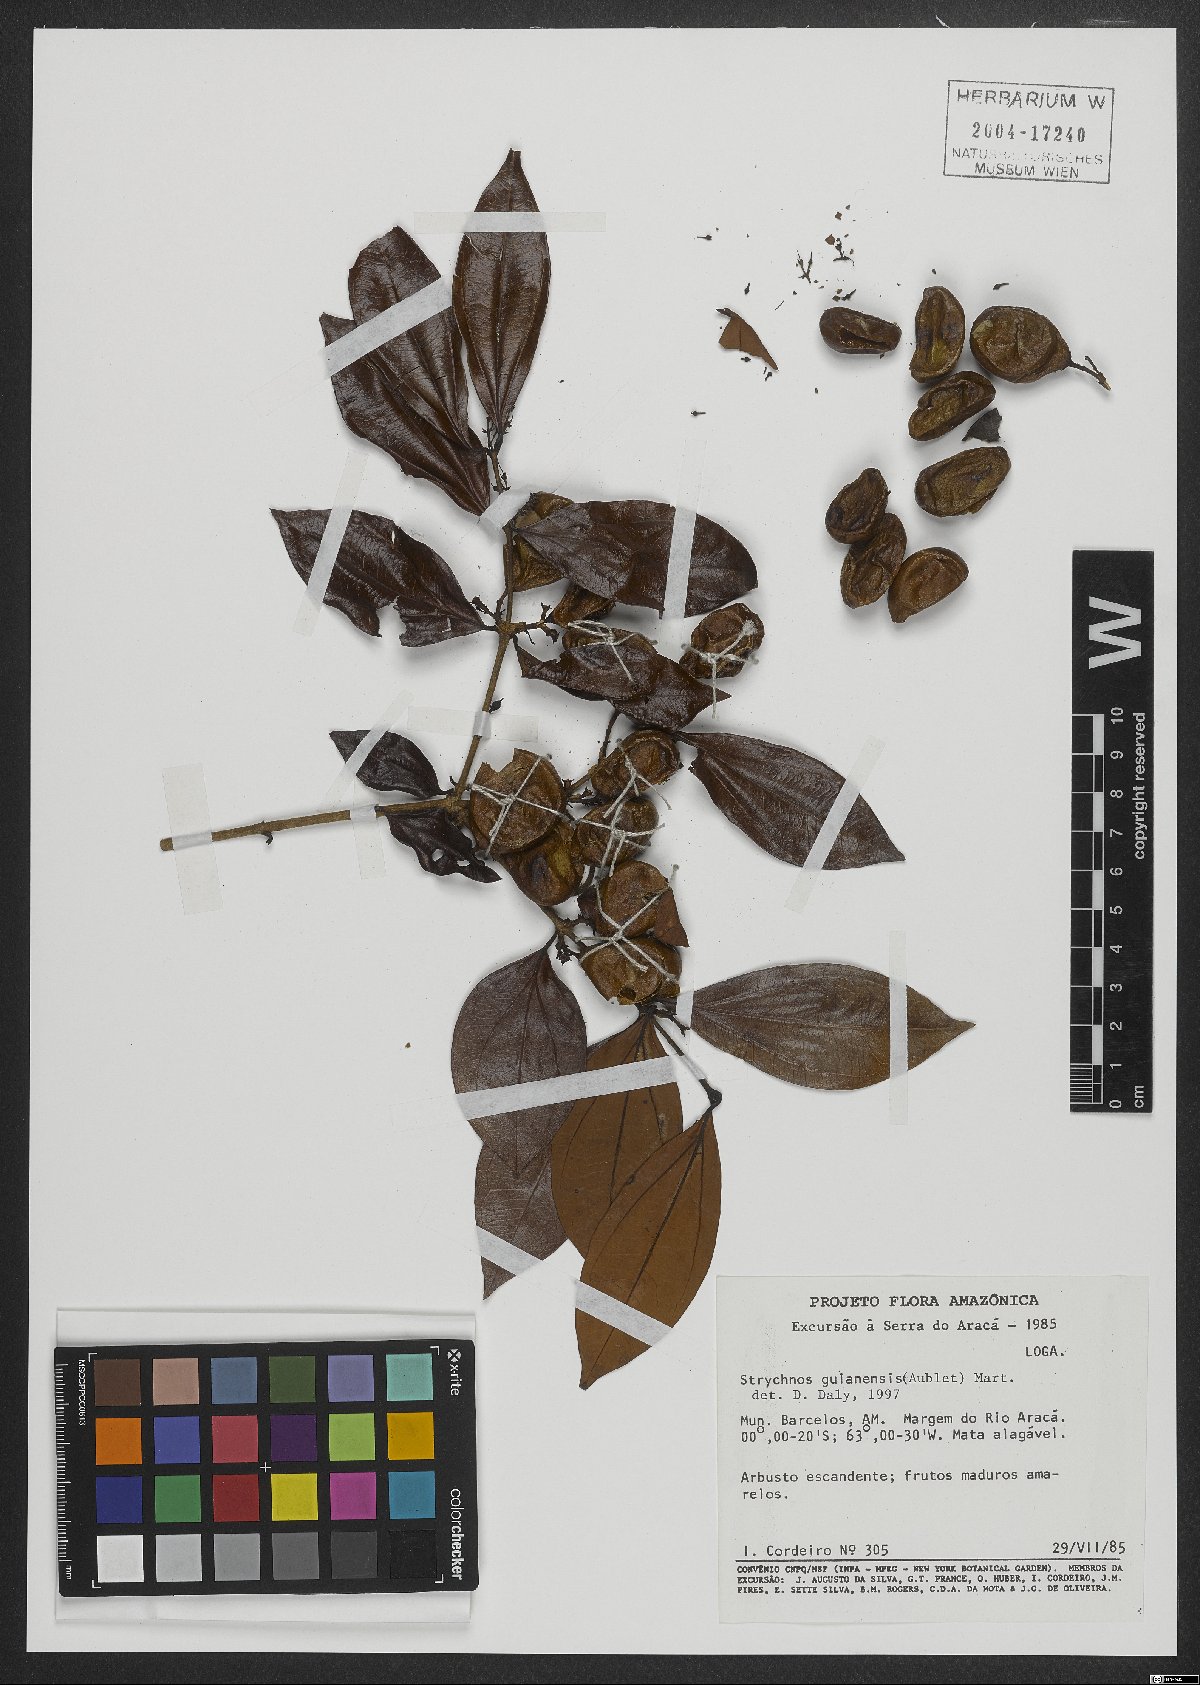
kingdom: Plantae
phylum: Tracheophyta
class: Magnoliopsida
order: Gentianales
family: Loganiaceae
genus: Strychnos
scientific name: Strychnos guianensis
